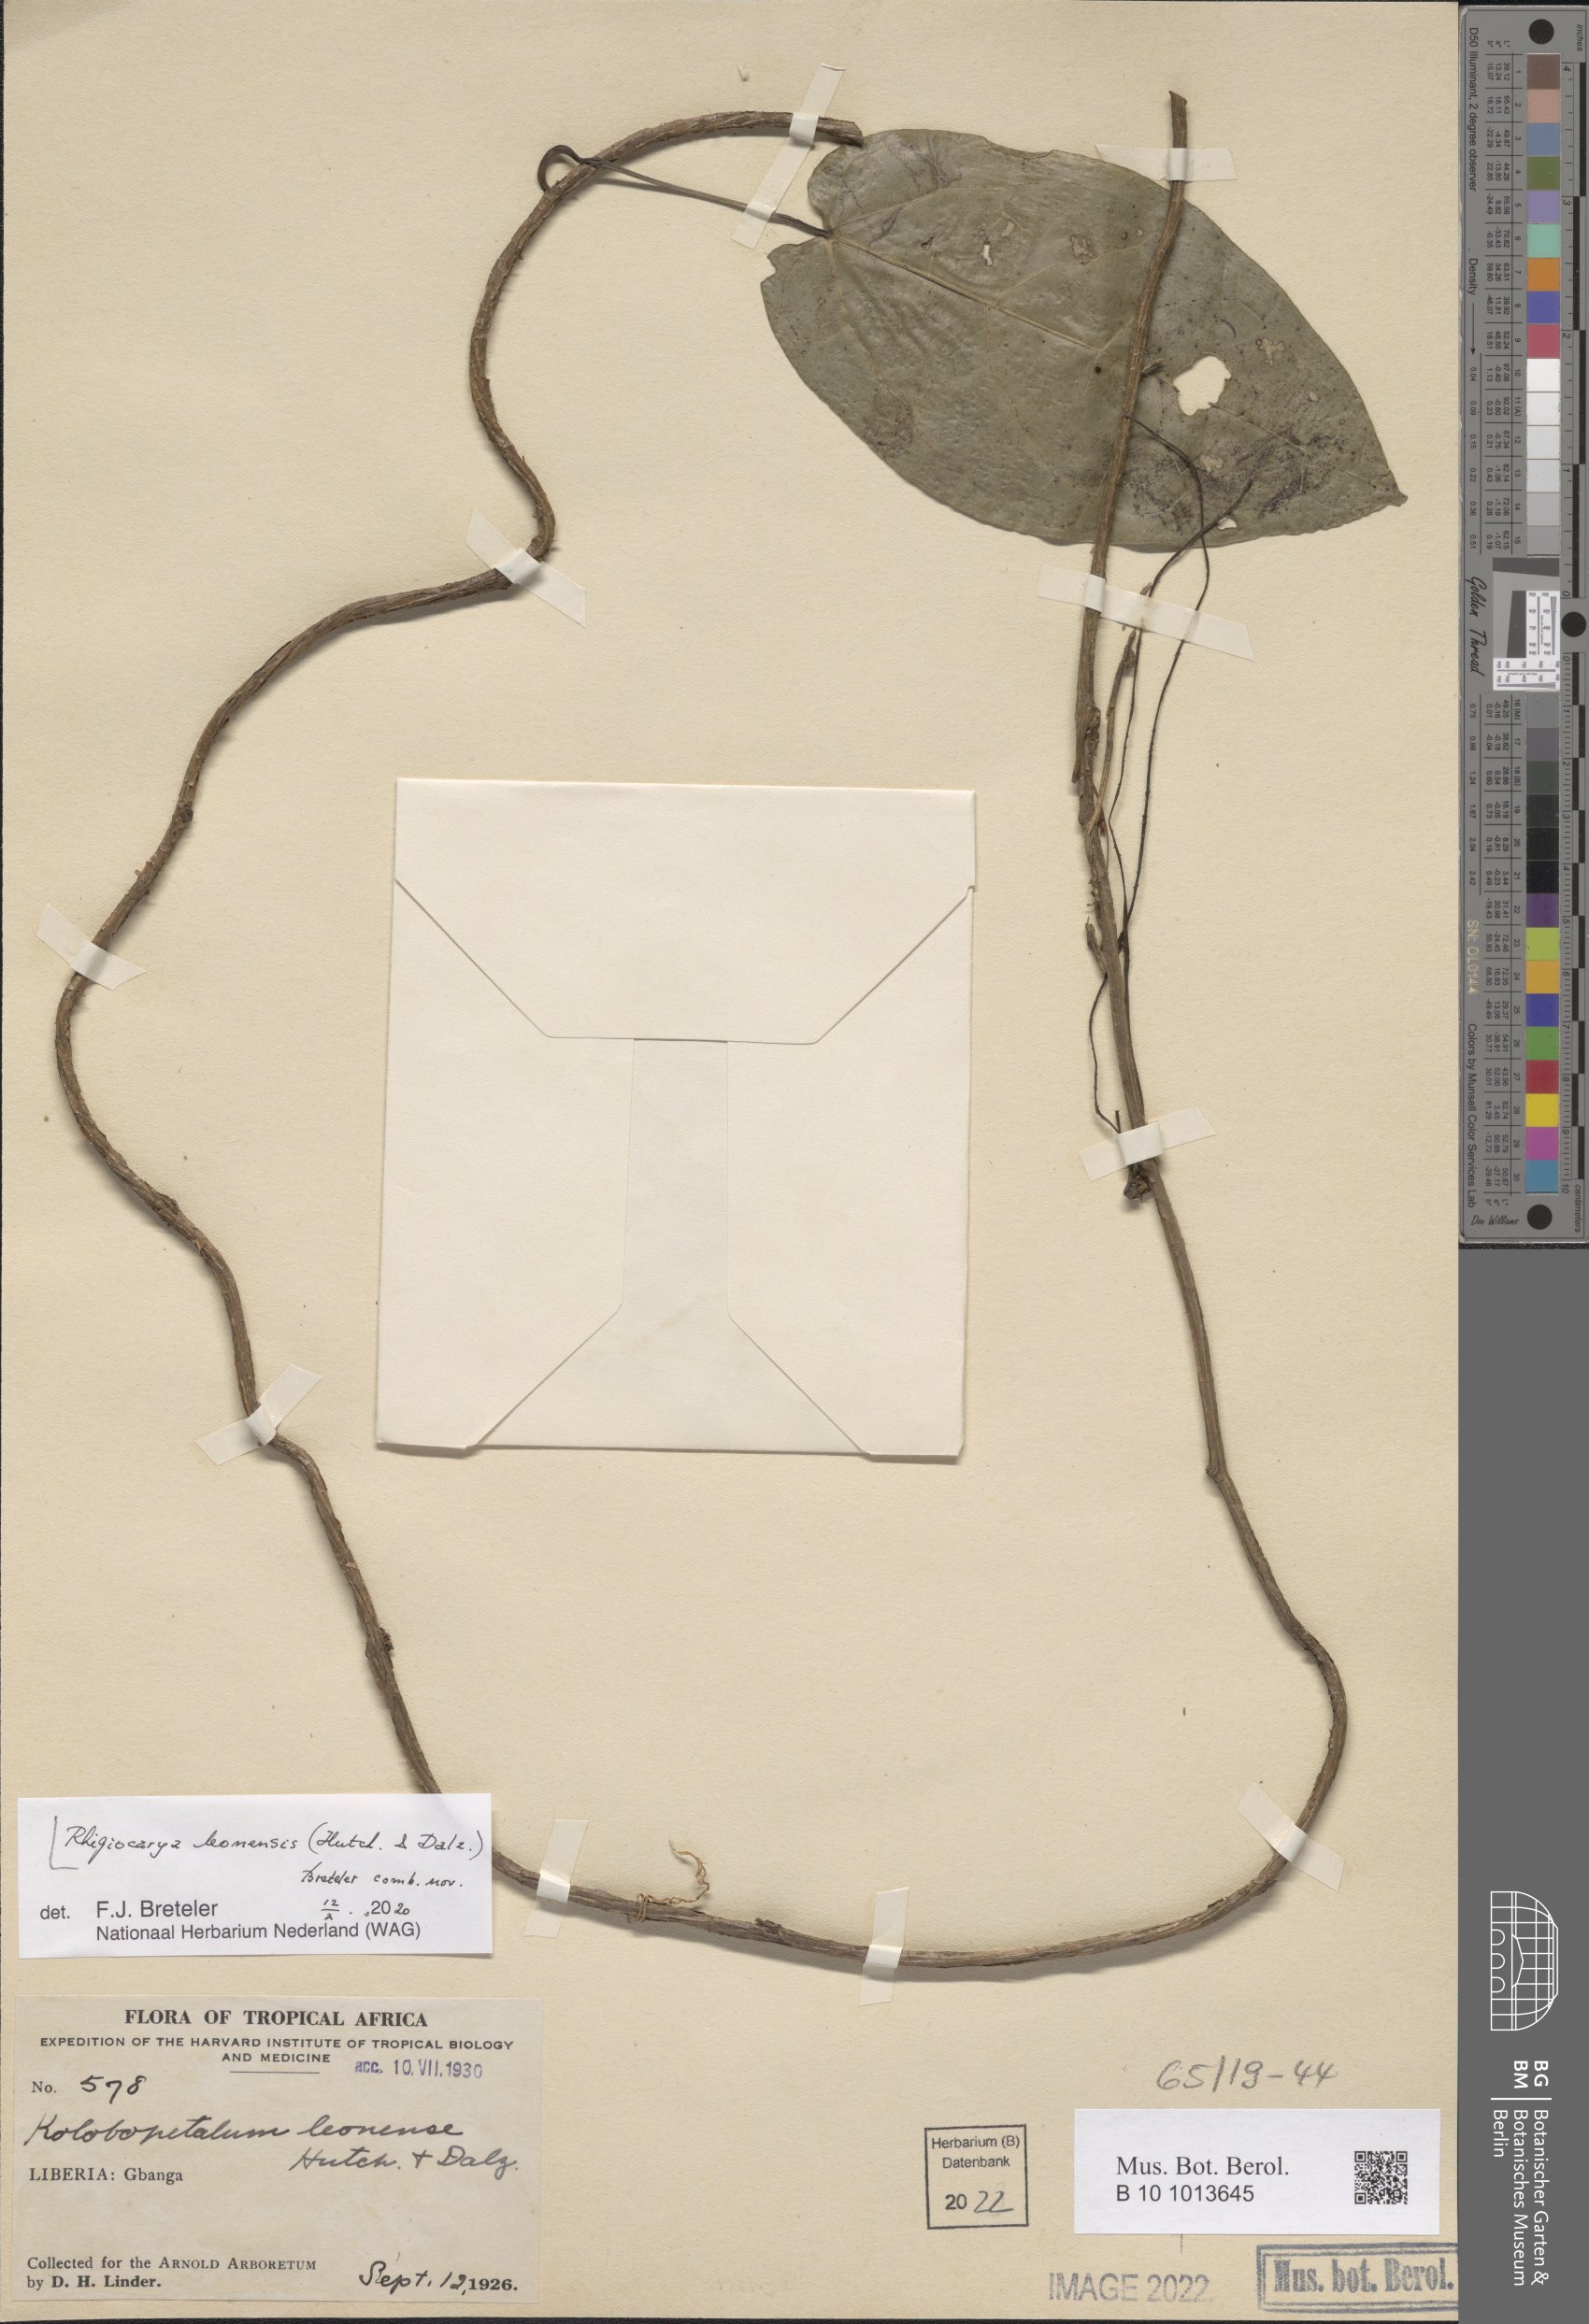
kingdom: Plantae
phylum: Tracheophyta
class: Magnoliopsida
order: Ranunculales
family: Menispermaceae
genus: Rhigiocarya
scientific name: Rhigiocarya leonensis
